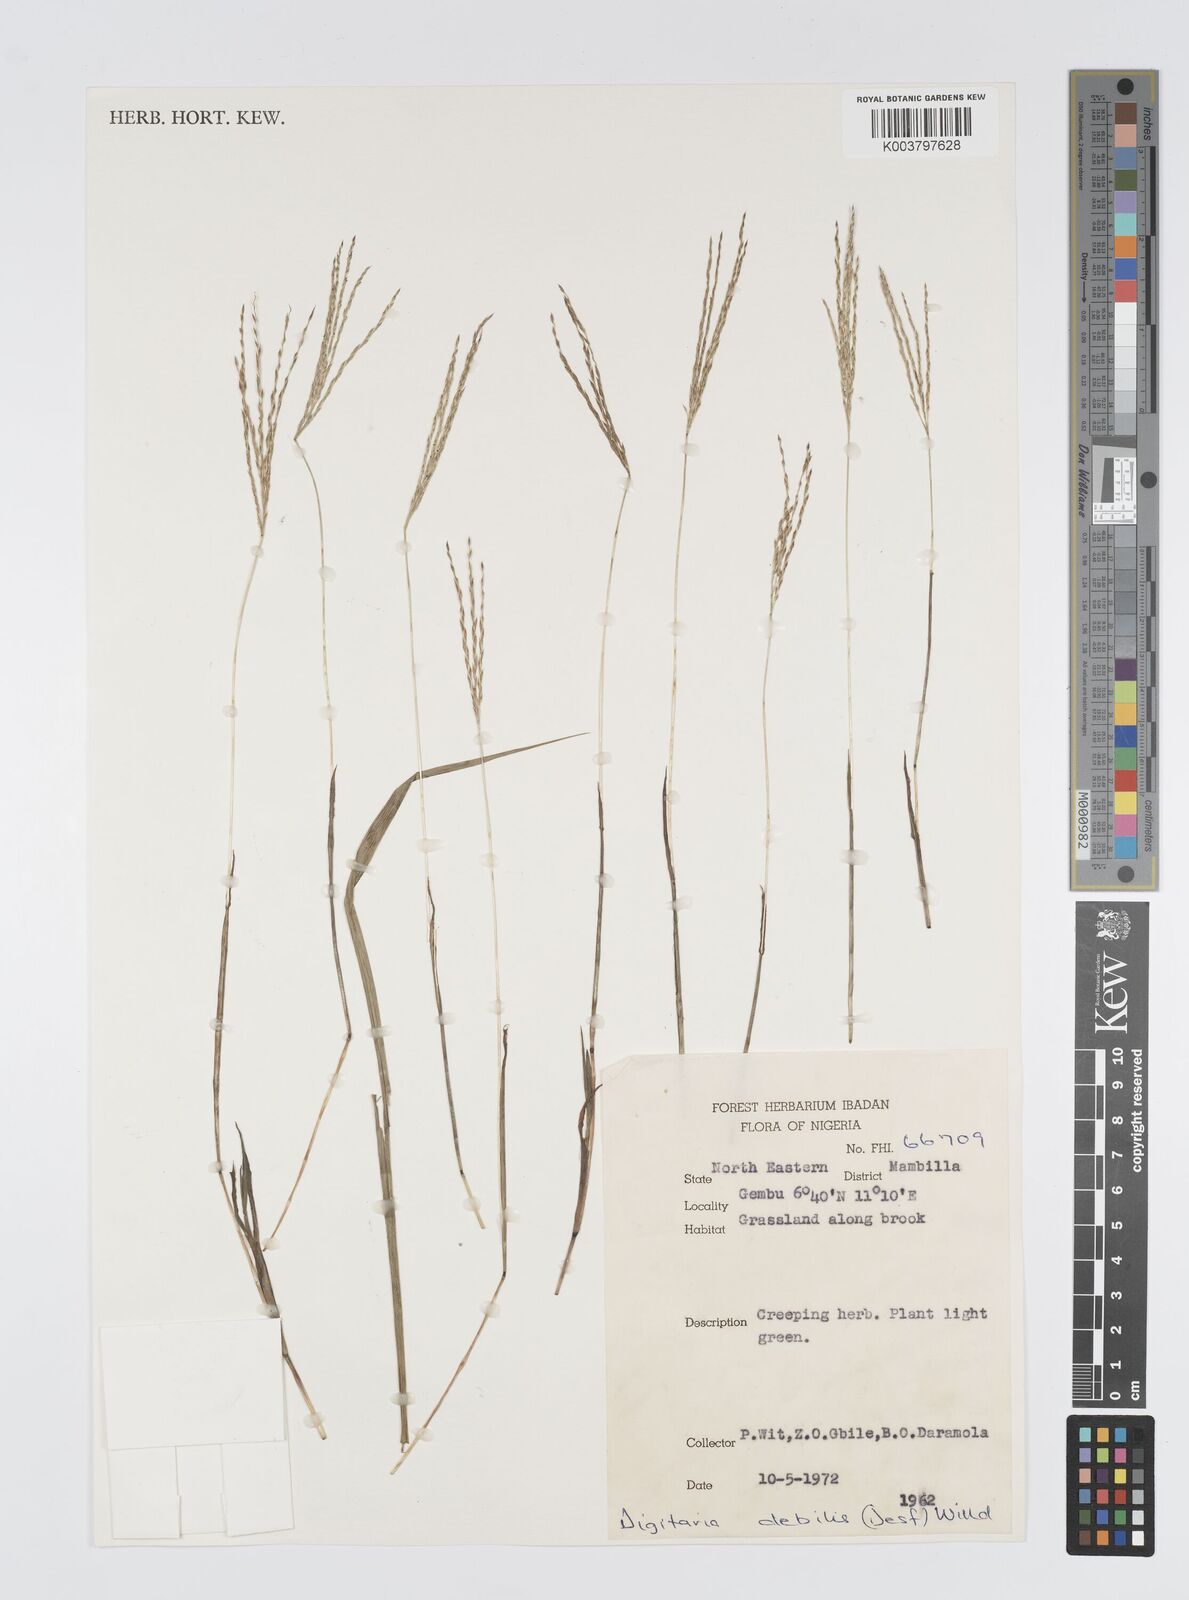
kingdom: Plantae
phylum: Tracheophyta
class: Liliopsida
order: Poales
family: Poaceae
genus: Digitaria
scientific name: Digitaria debilis
